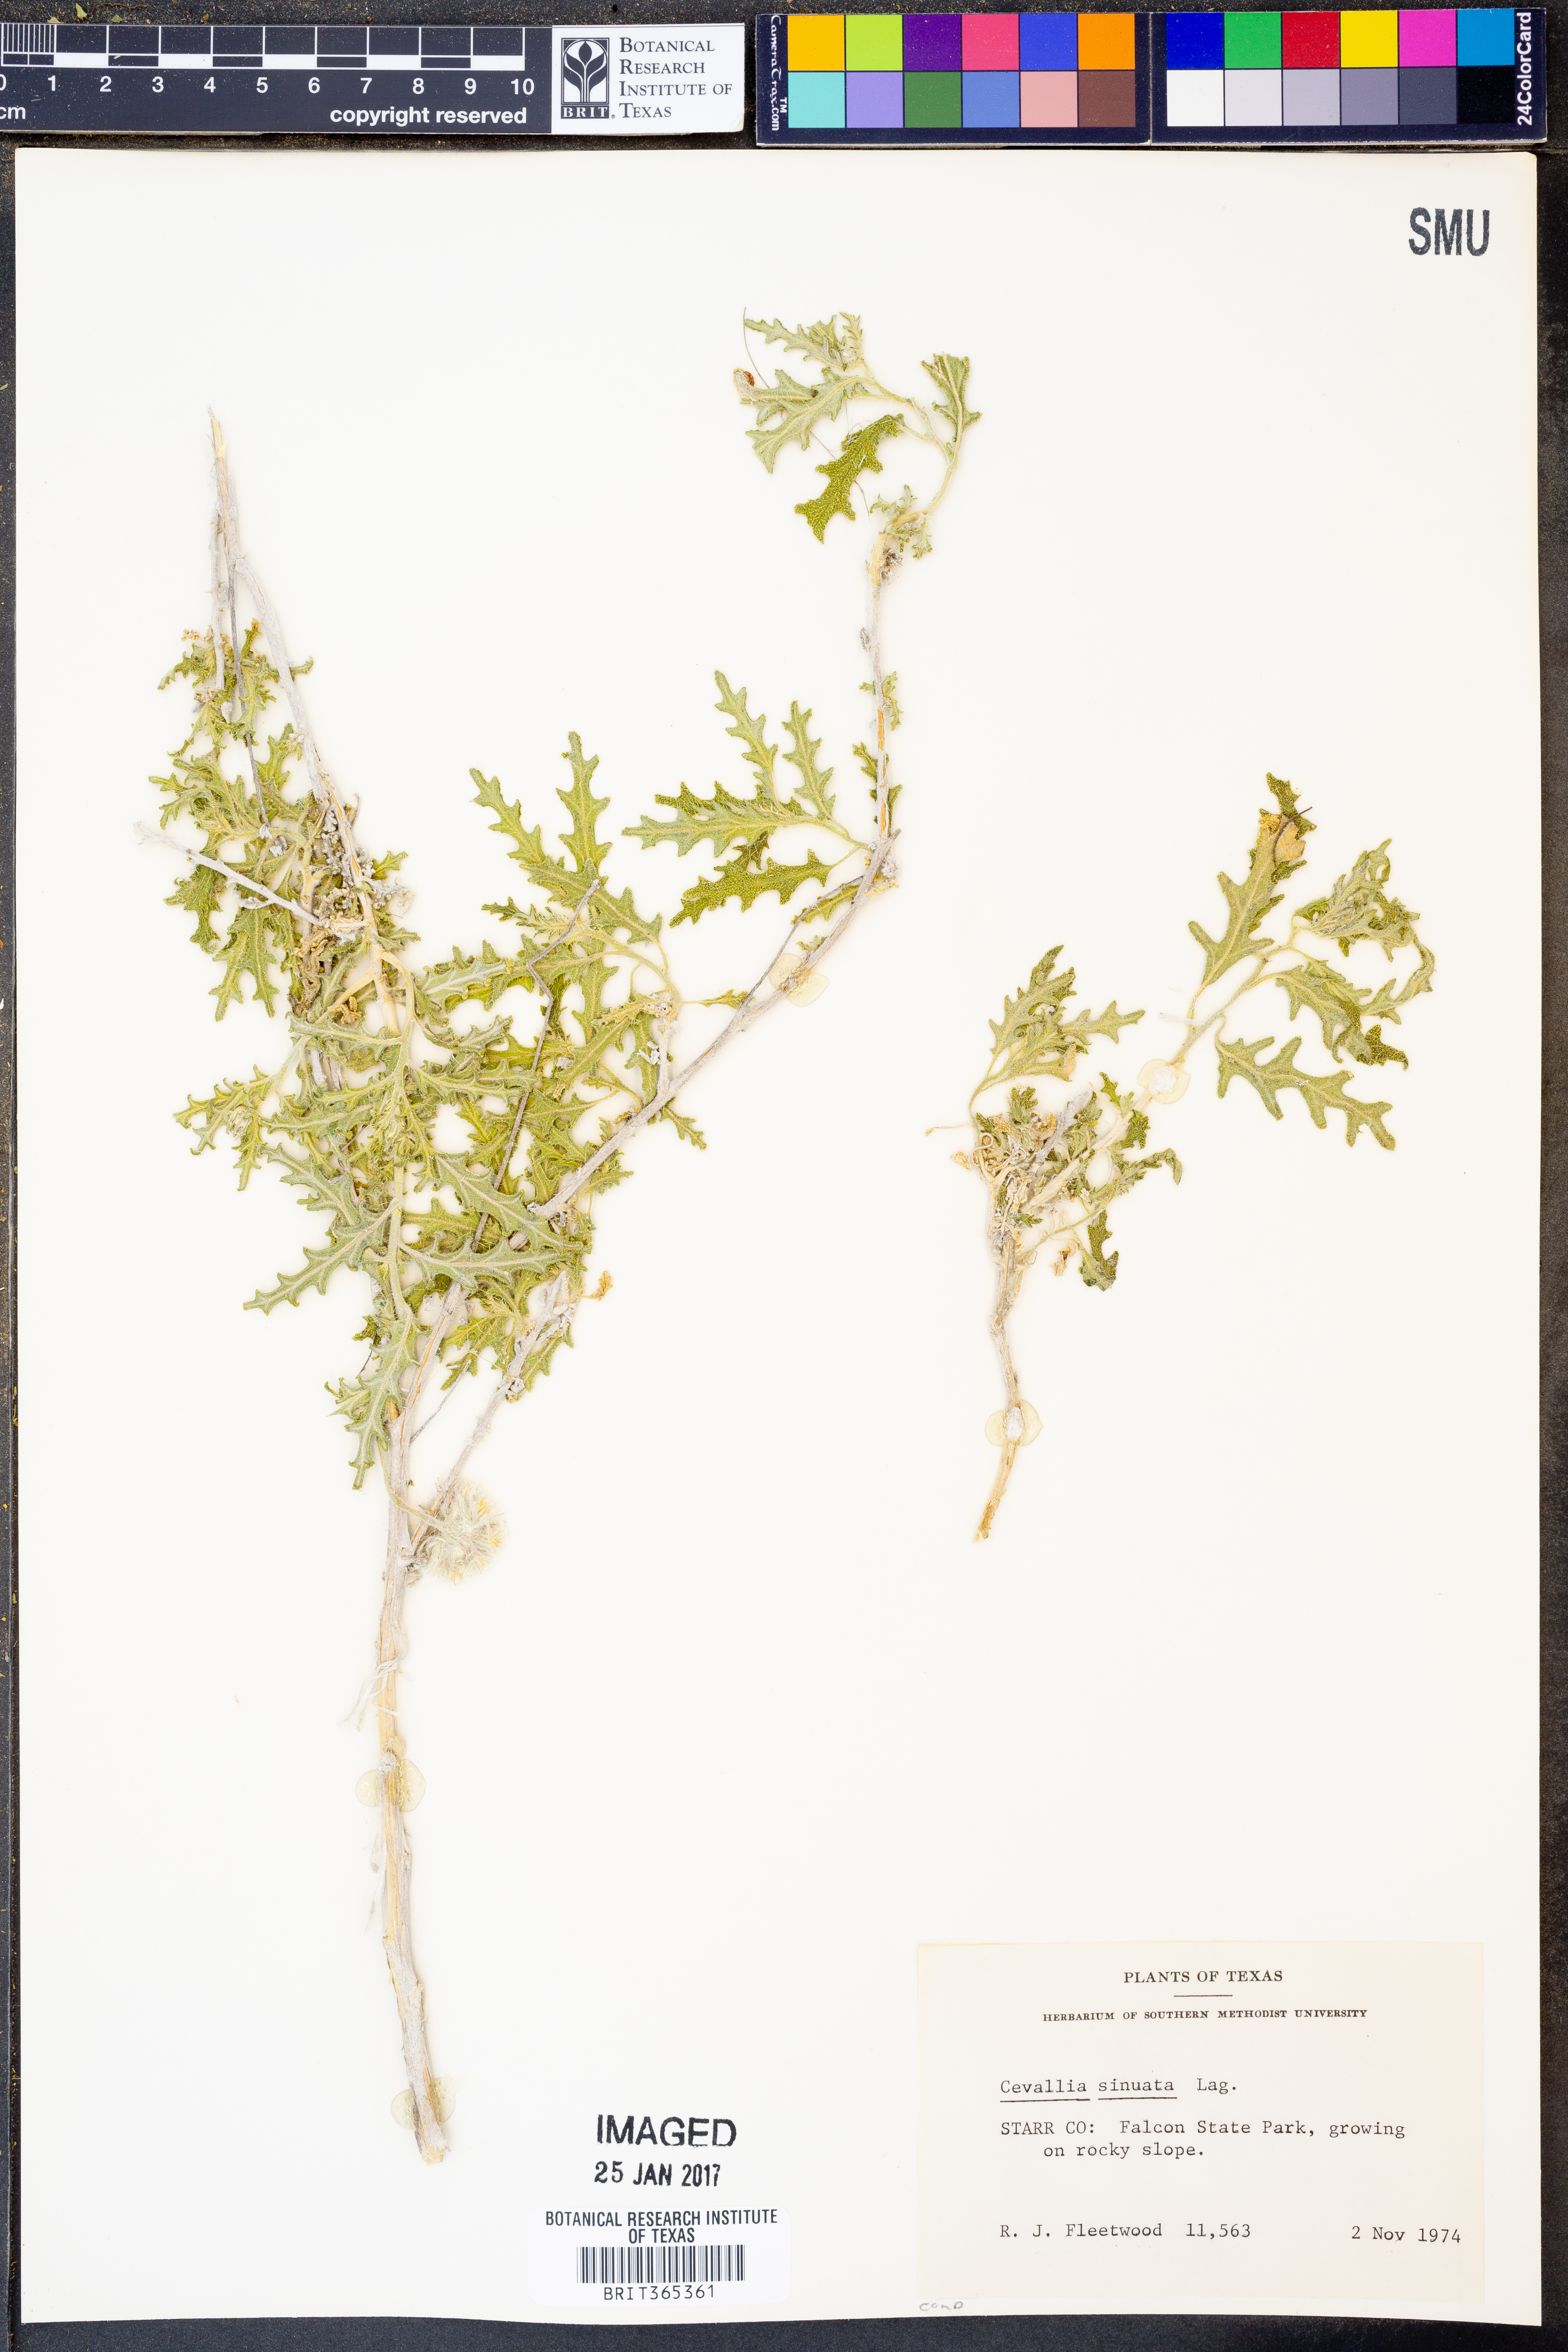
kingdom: Plantae
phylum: Tracheophyta
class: Magnoliopsida
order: Cornales
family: Loasaceae
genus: Cevallia
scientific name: Cevallia sinuata
